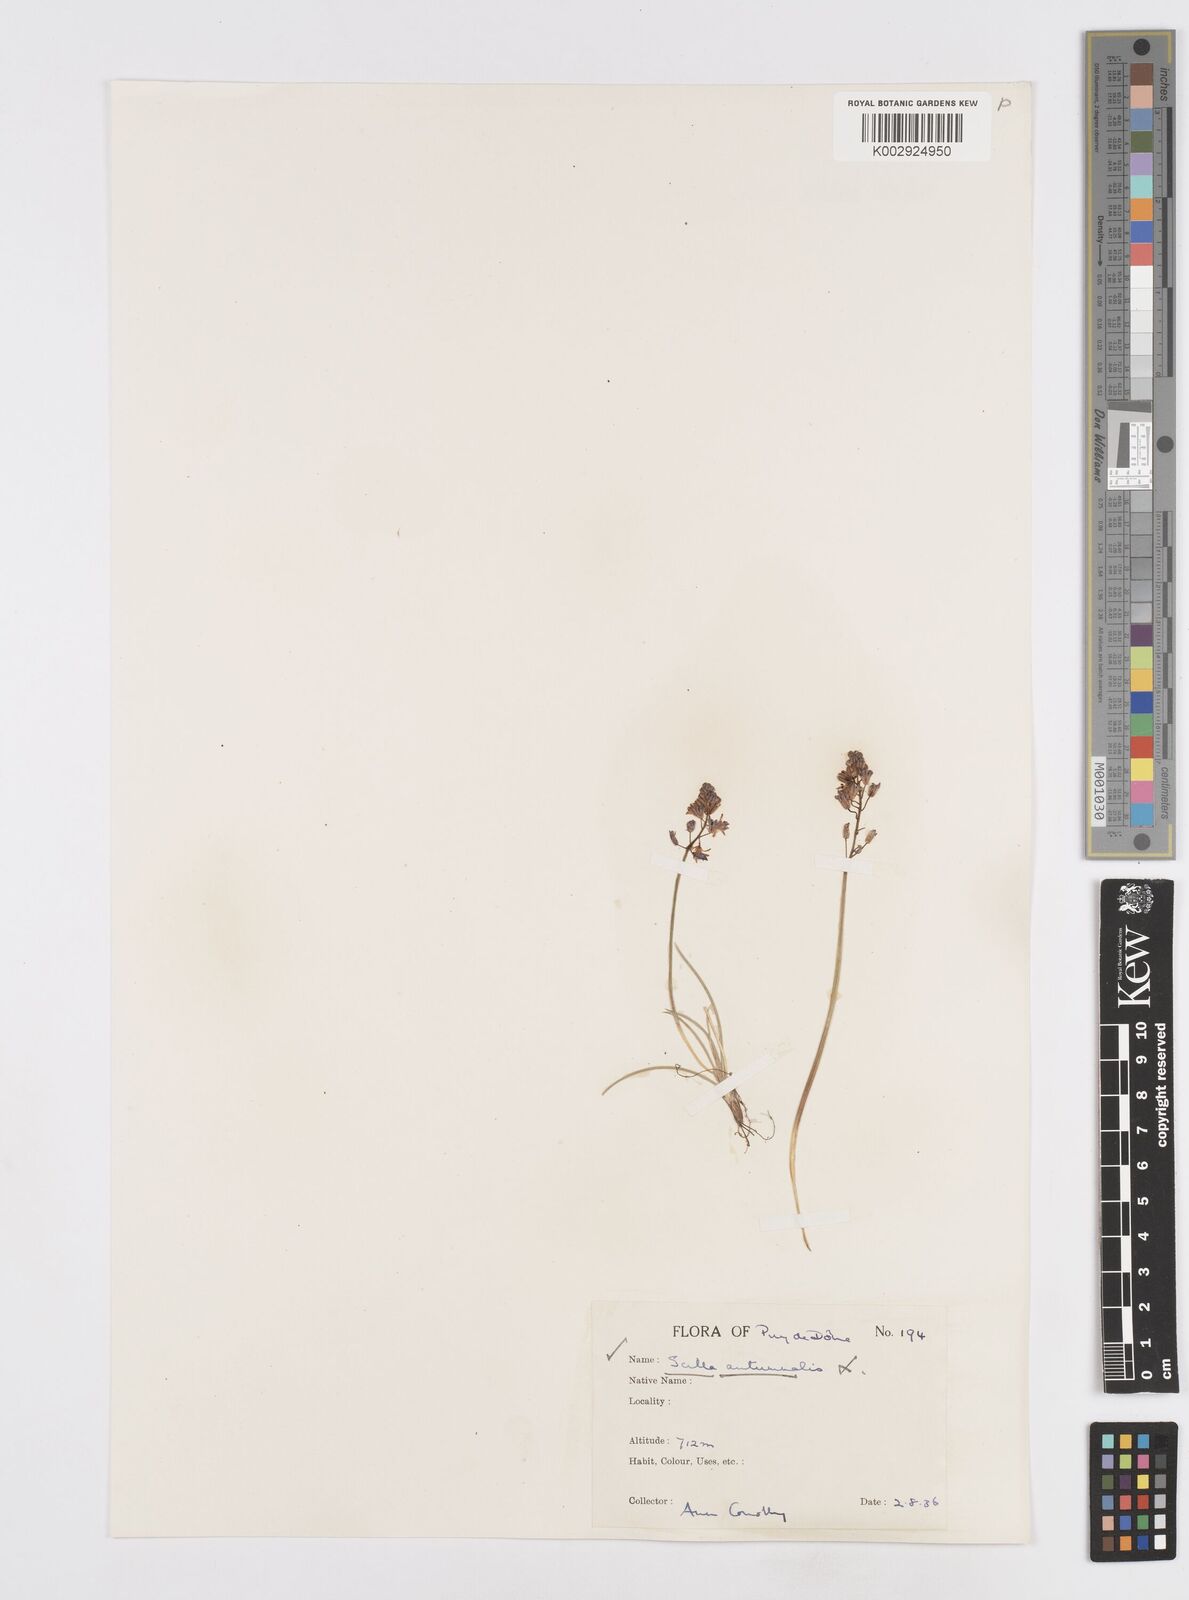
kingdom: Plantae
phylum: Tracheophyta
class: Liliopsida
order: Asparagales
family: Asparagaceae
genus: Prospero
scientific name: Prospero autumnale
